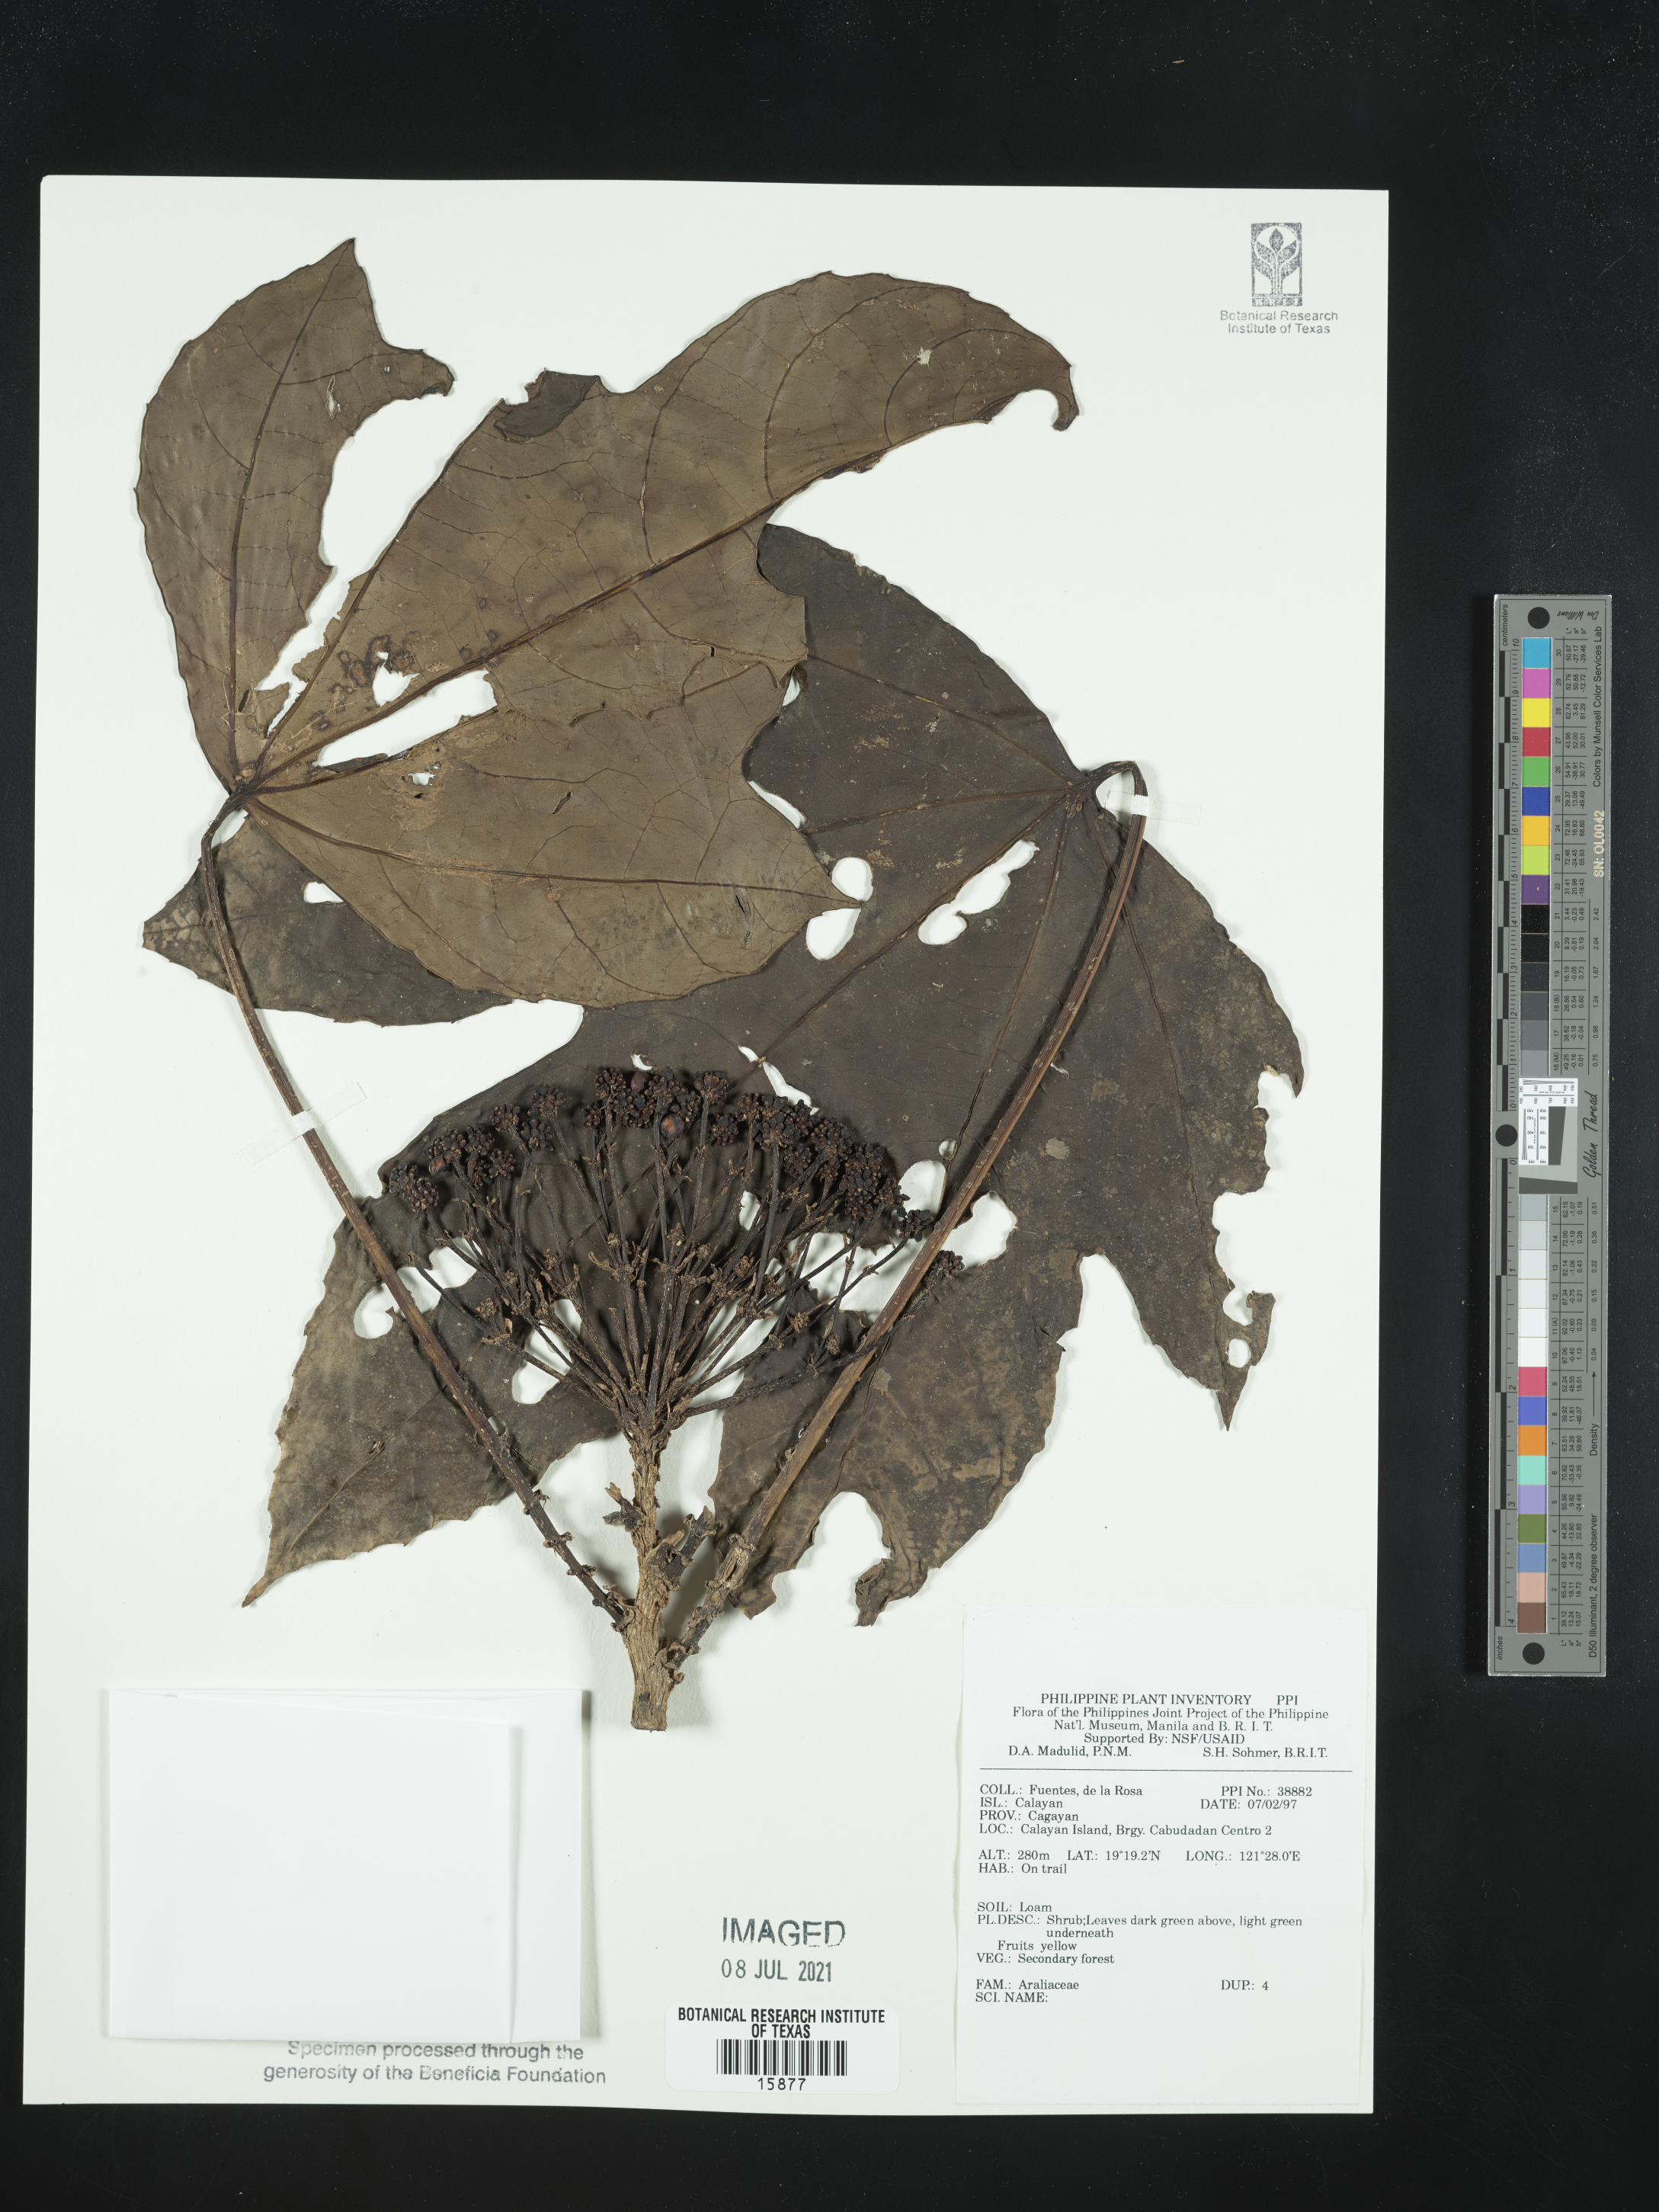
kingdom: Plantae
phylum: Tracheophyta
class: Magnoliopsida
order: Apiales
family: Araliaceae
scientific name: Araliaceae
